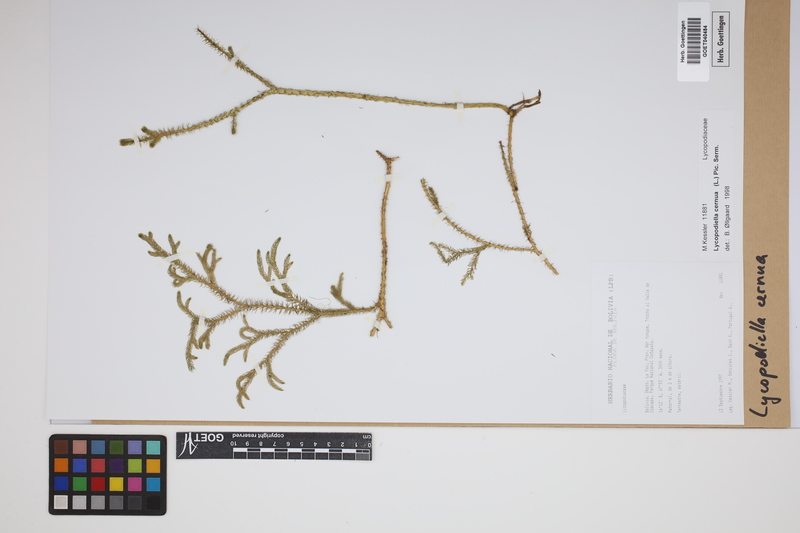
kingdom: Plantae
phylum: Tracheophyta
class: Lycopodiopsida
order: Lycopodiales
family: Lycopodiaceae
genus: Palhinhaea
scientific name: Palhinhaea cernua
